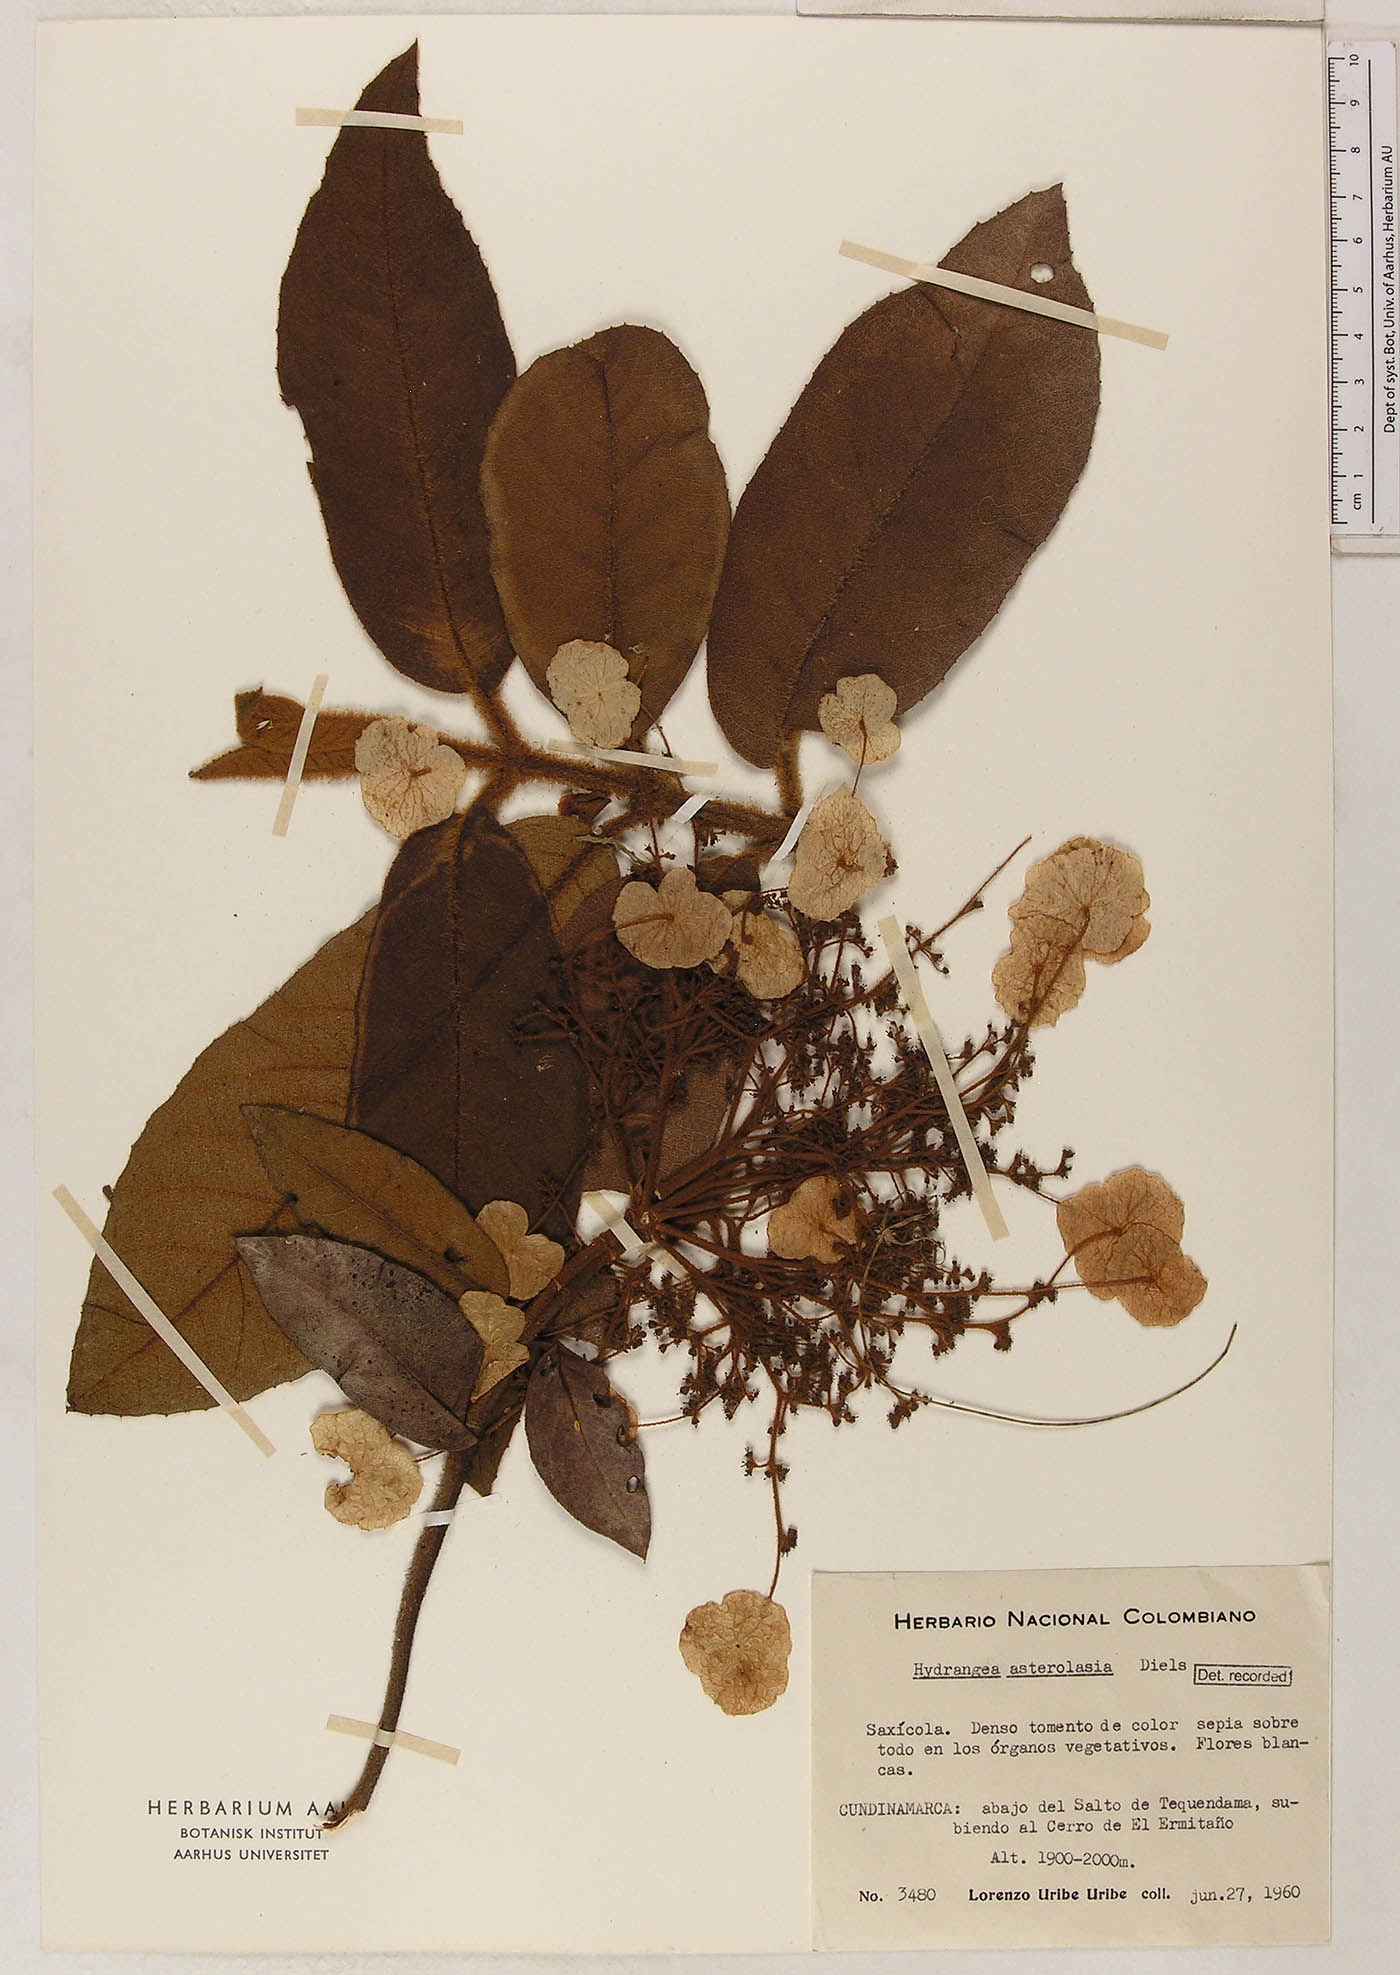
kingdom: Plantae
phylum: Tracheophyta
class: Magnoliopsida
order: Cornales
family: Hydrangeaceae
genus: Hydrangea
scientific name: Hydrangea asterolasia
